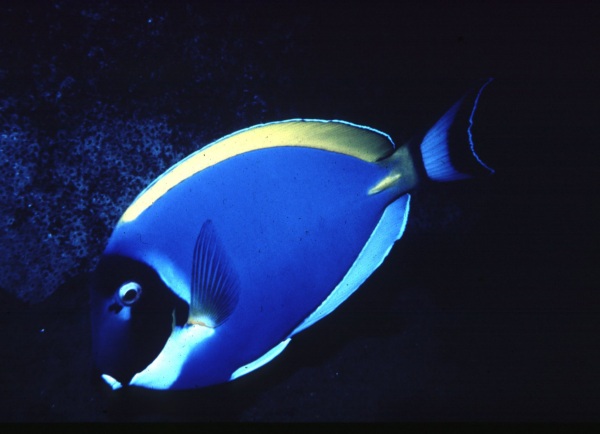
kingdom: Animalia
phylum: Chordata
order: Perciformes
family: Acanthuridae
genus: Acanthurus
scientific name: Acanthurus leucosternon
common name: Blue surgeonfish
